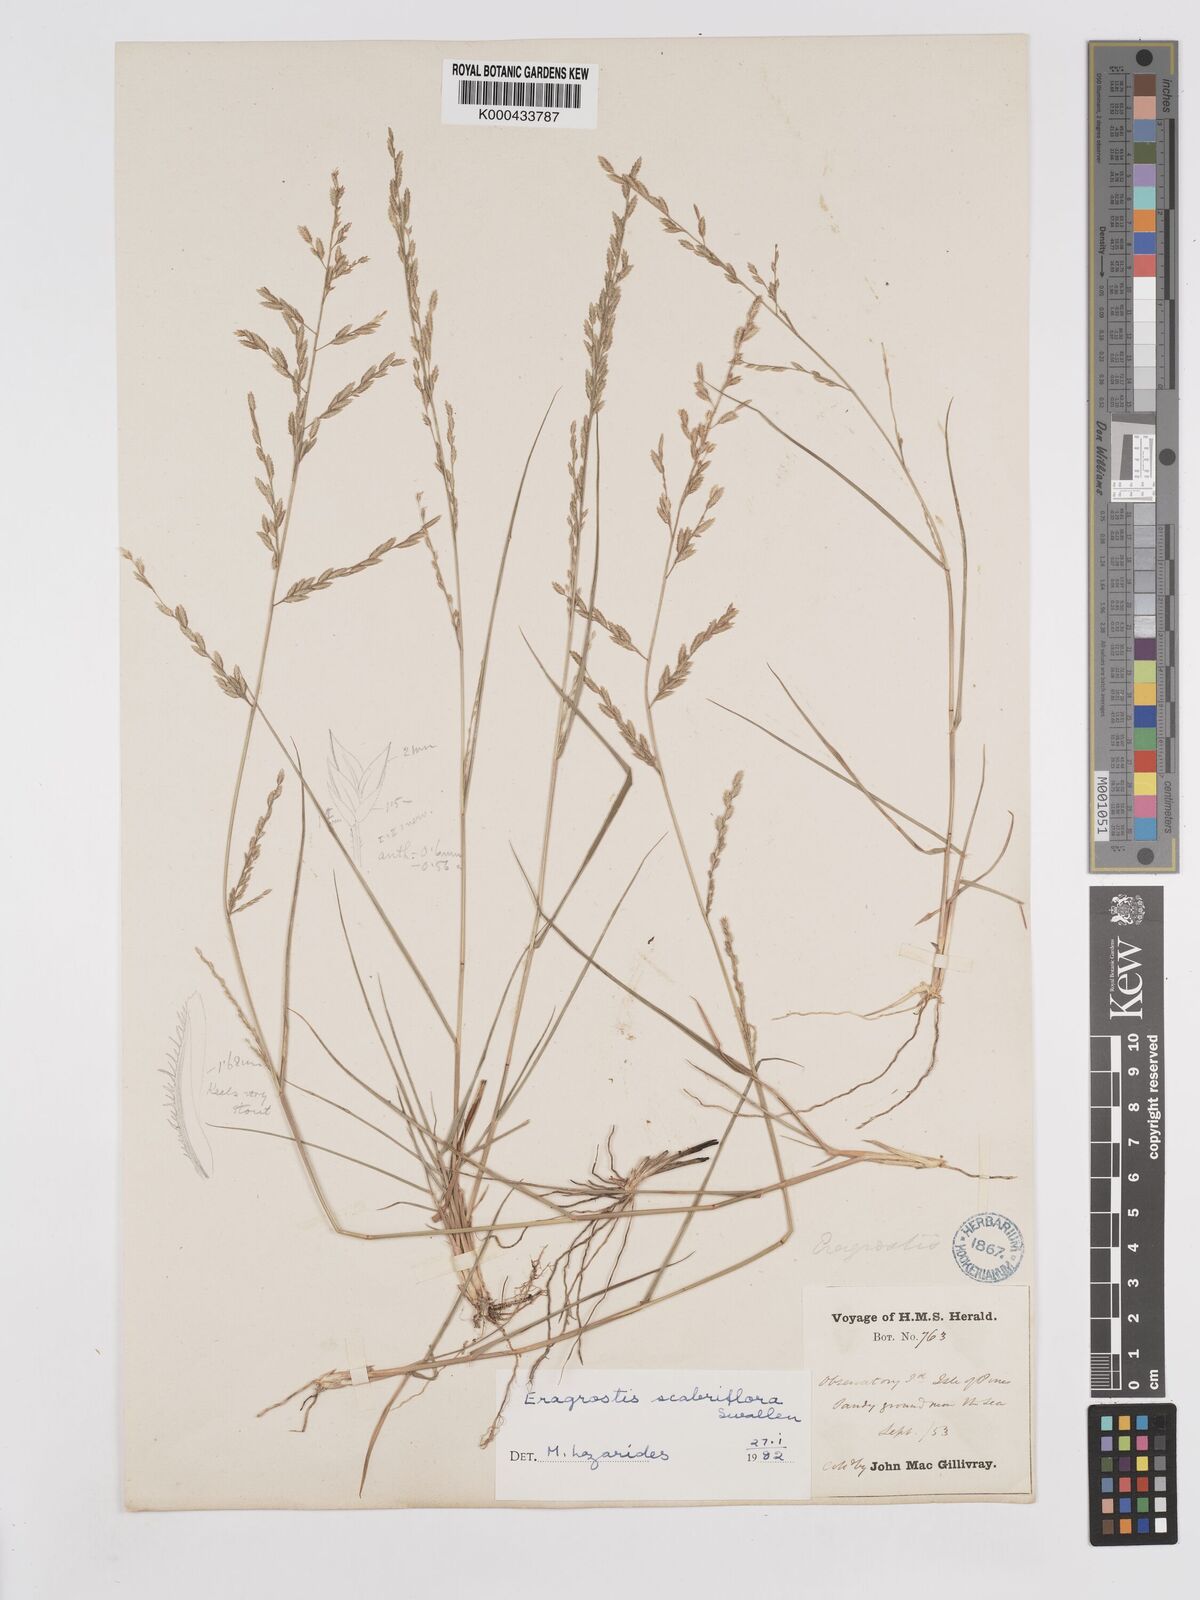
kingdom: Plantae
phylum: Tracheophyta
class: Liliopsida
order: Poales
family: Poaceae
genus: Eragrostis
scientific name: Eragrostis scabriflora
